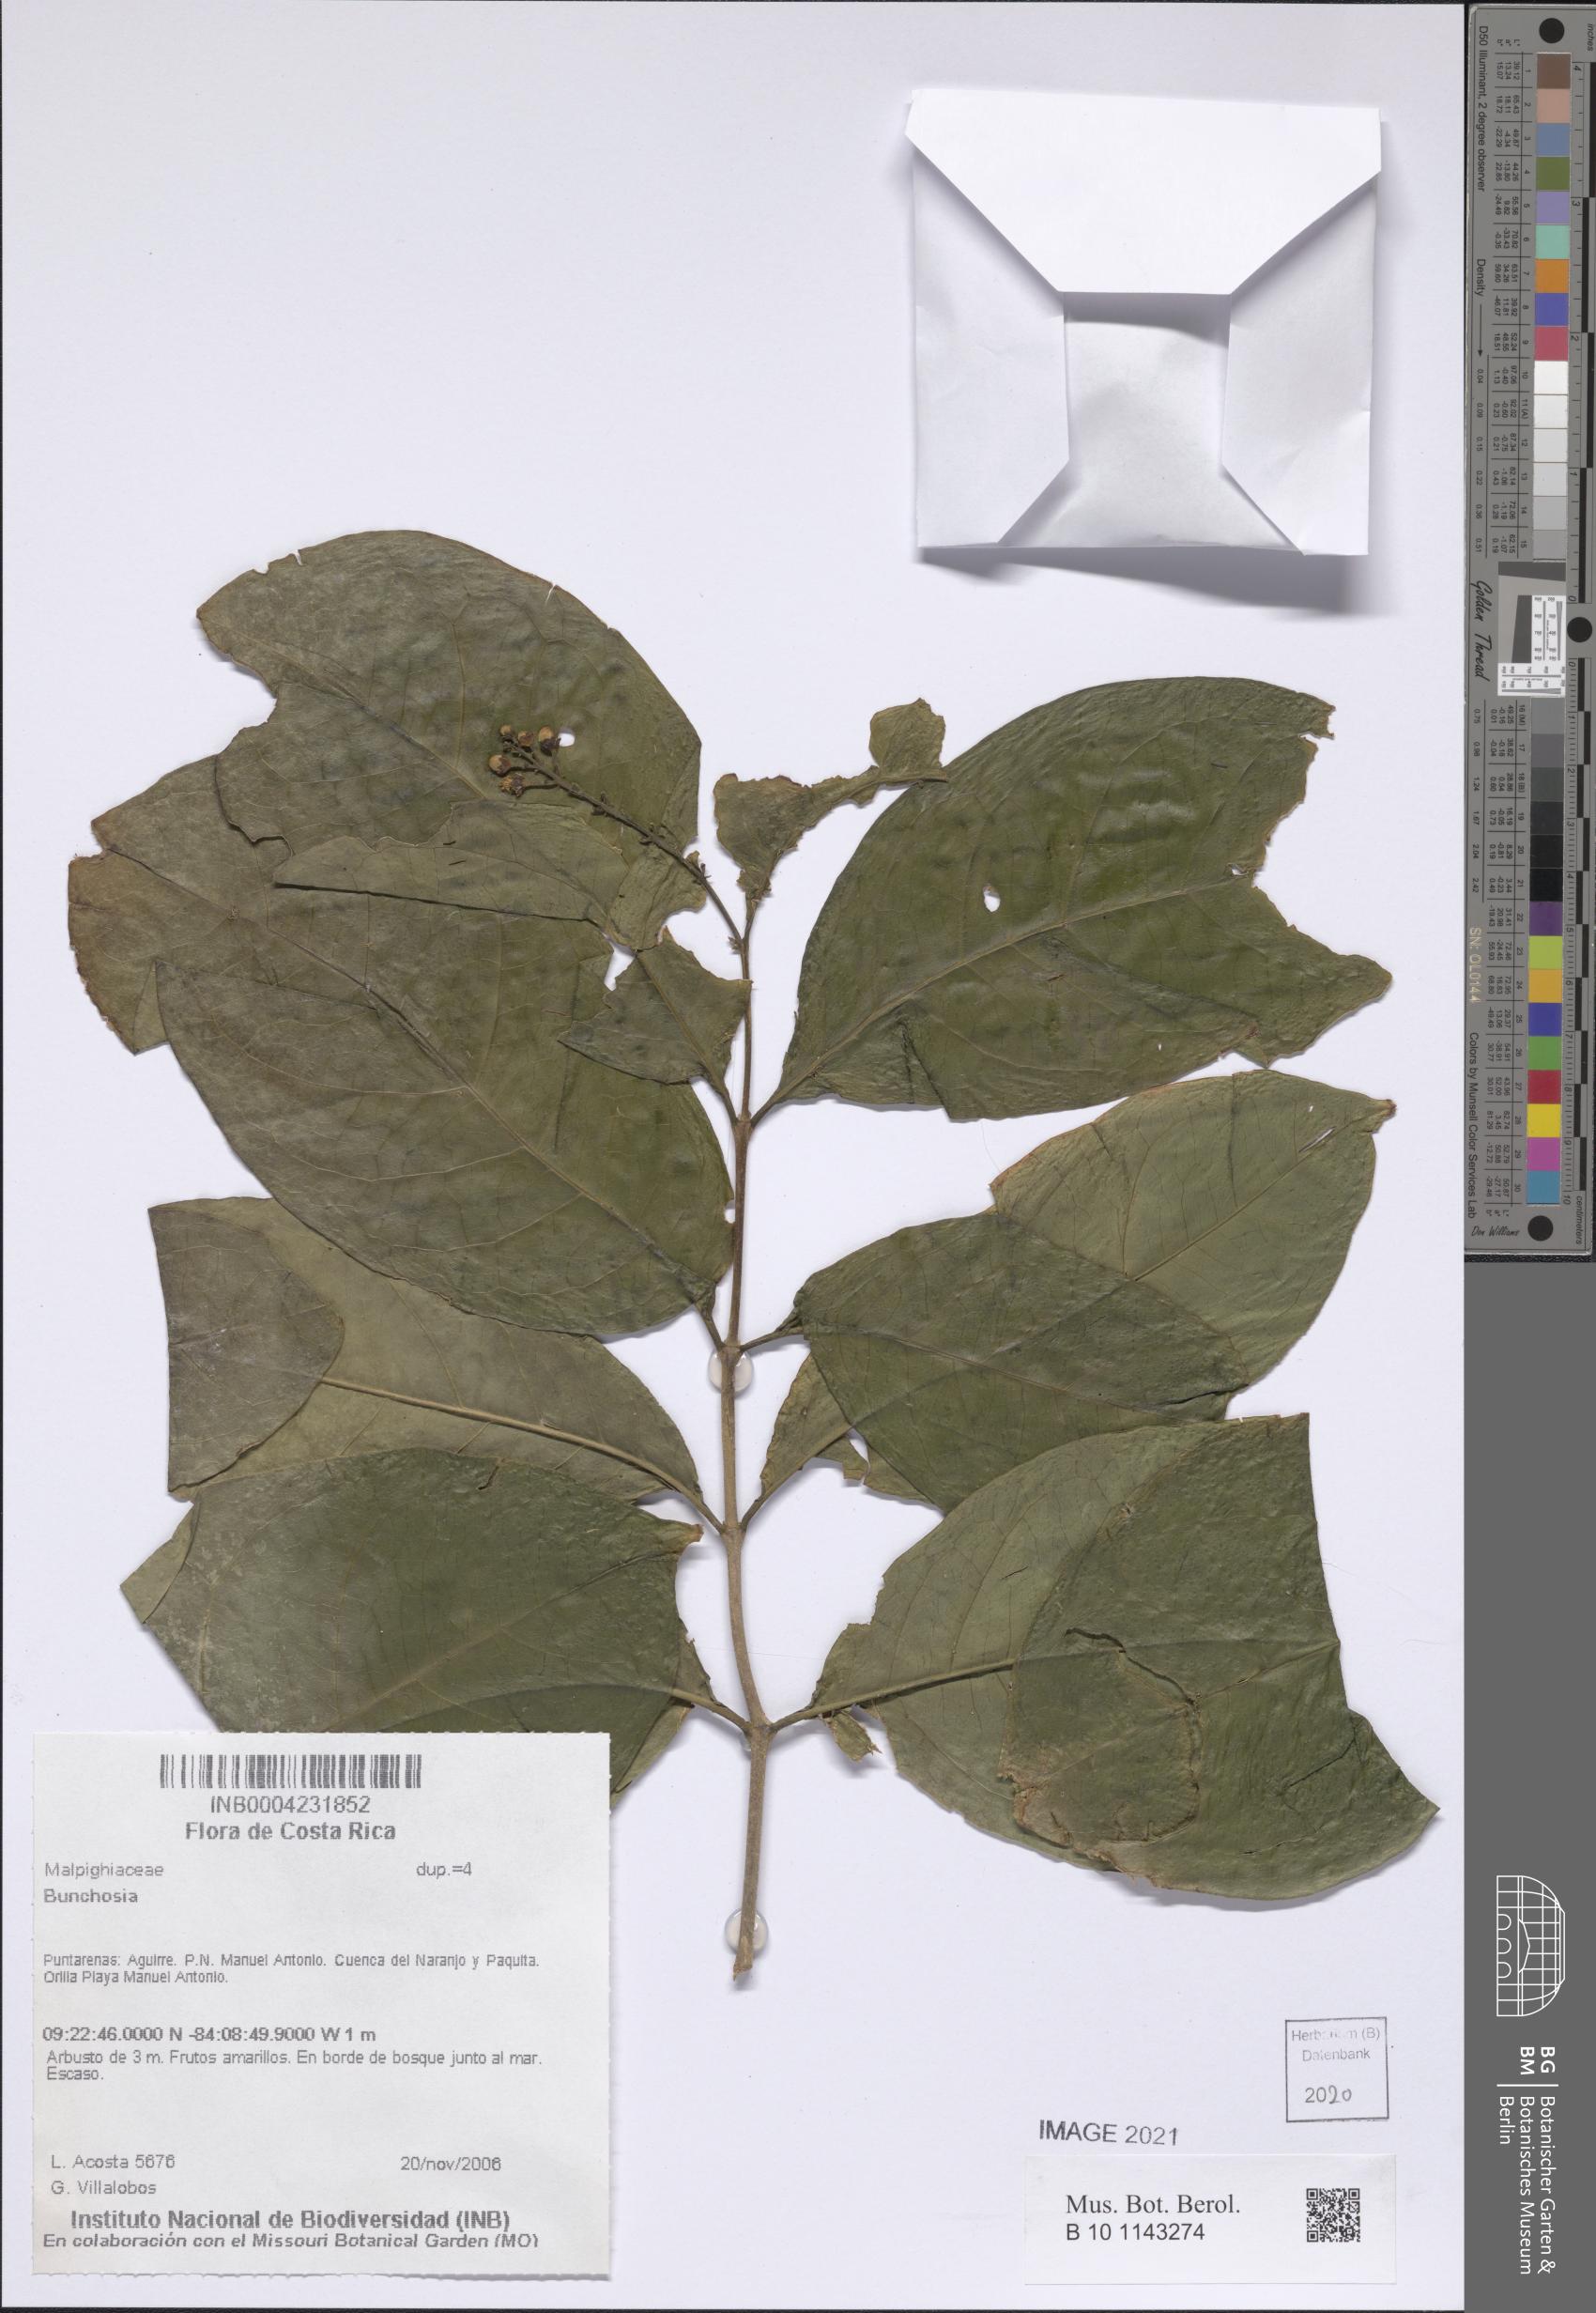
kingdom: Plantae
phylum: Tracheophyta
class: Magnoliopsida
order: Malpighiales
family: Malpighiaceae
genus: Bunchosia
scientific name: Bunchosia
